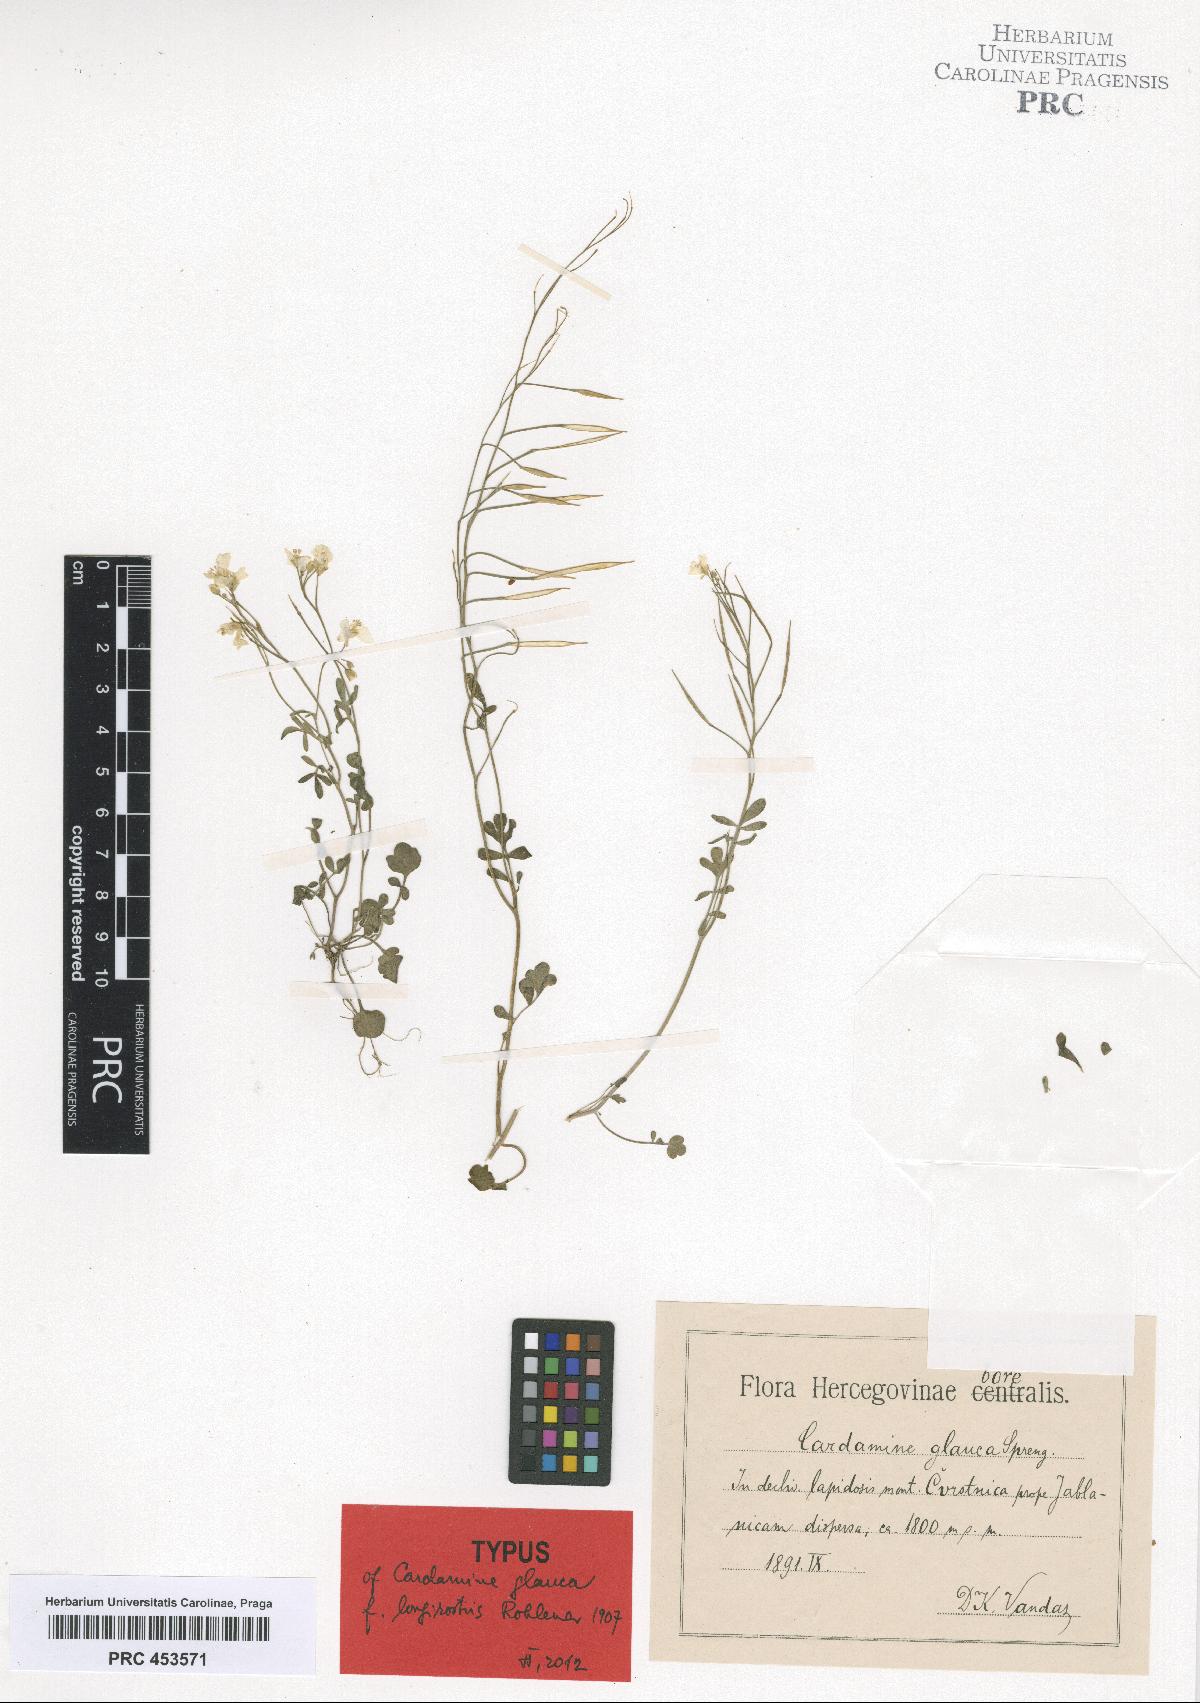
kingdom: Plantae
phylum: Tracheophyta
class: Magnoliopsida
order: Brassicales
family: Brassicaceae
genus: Cardamine
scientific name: Cardamine glauca
